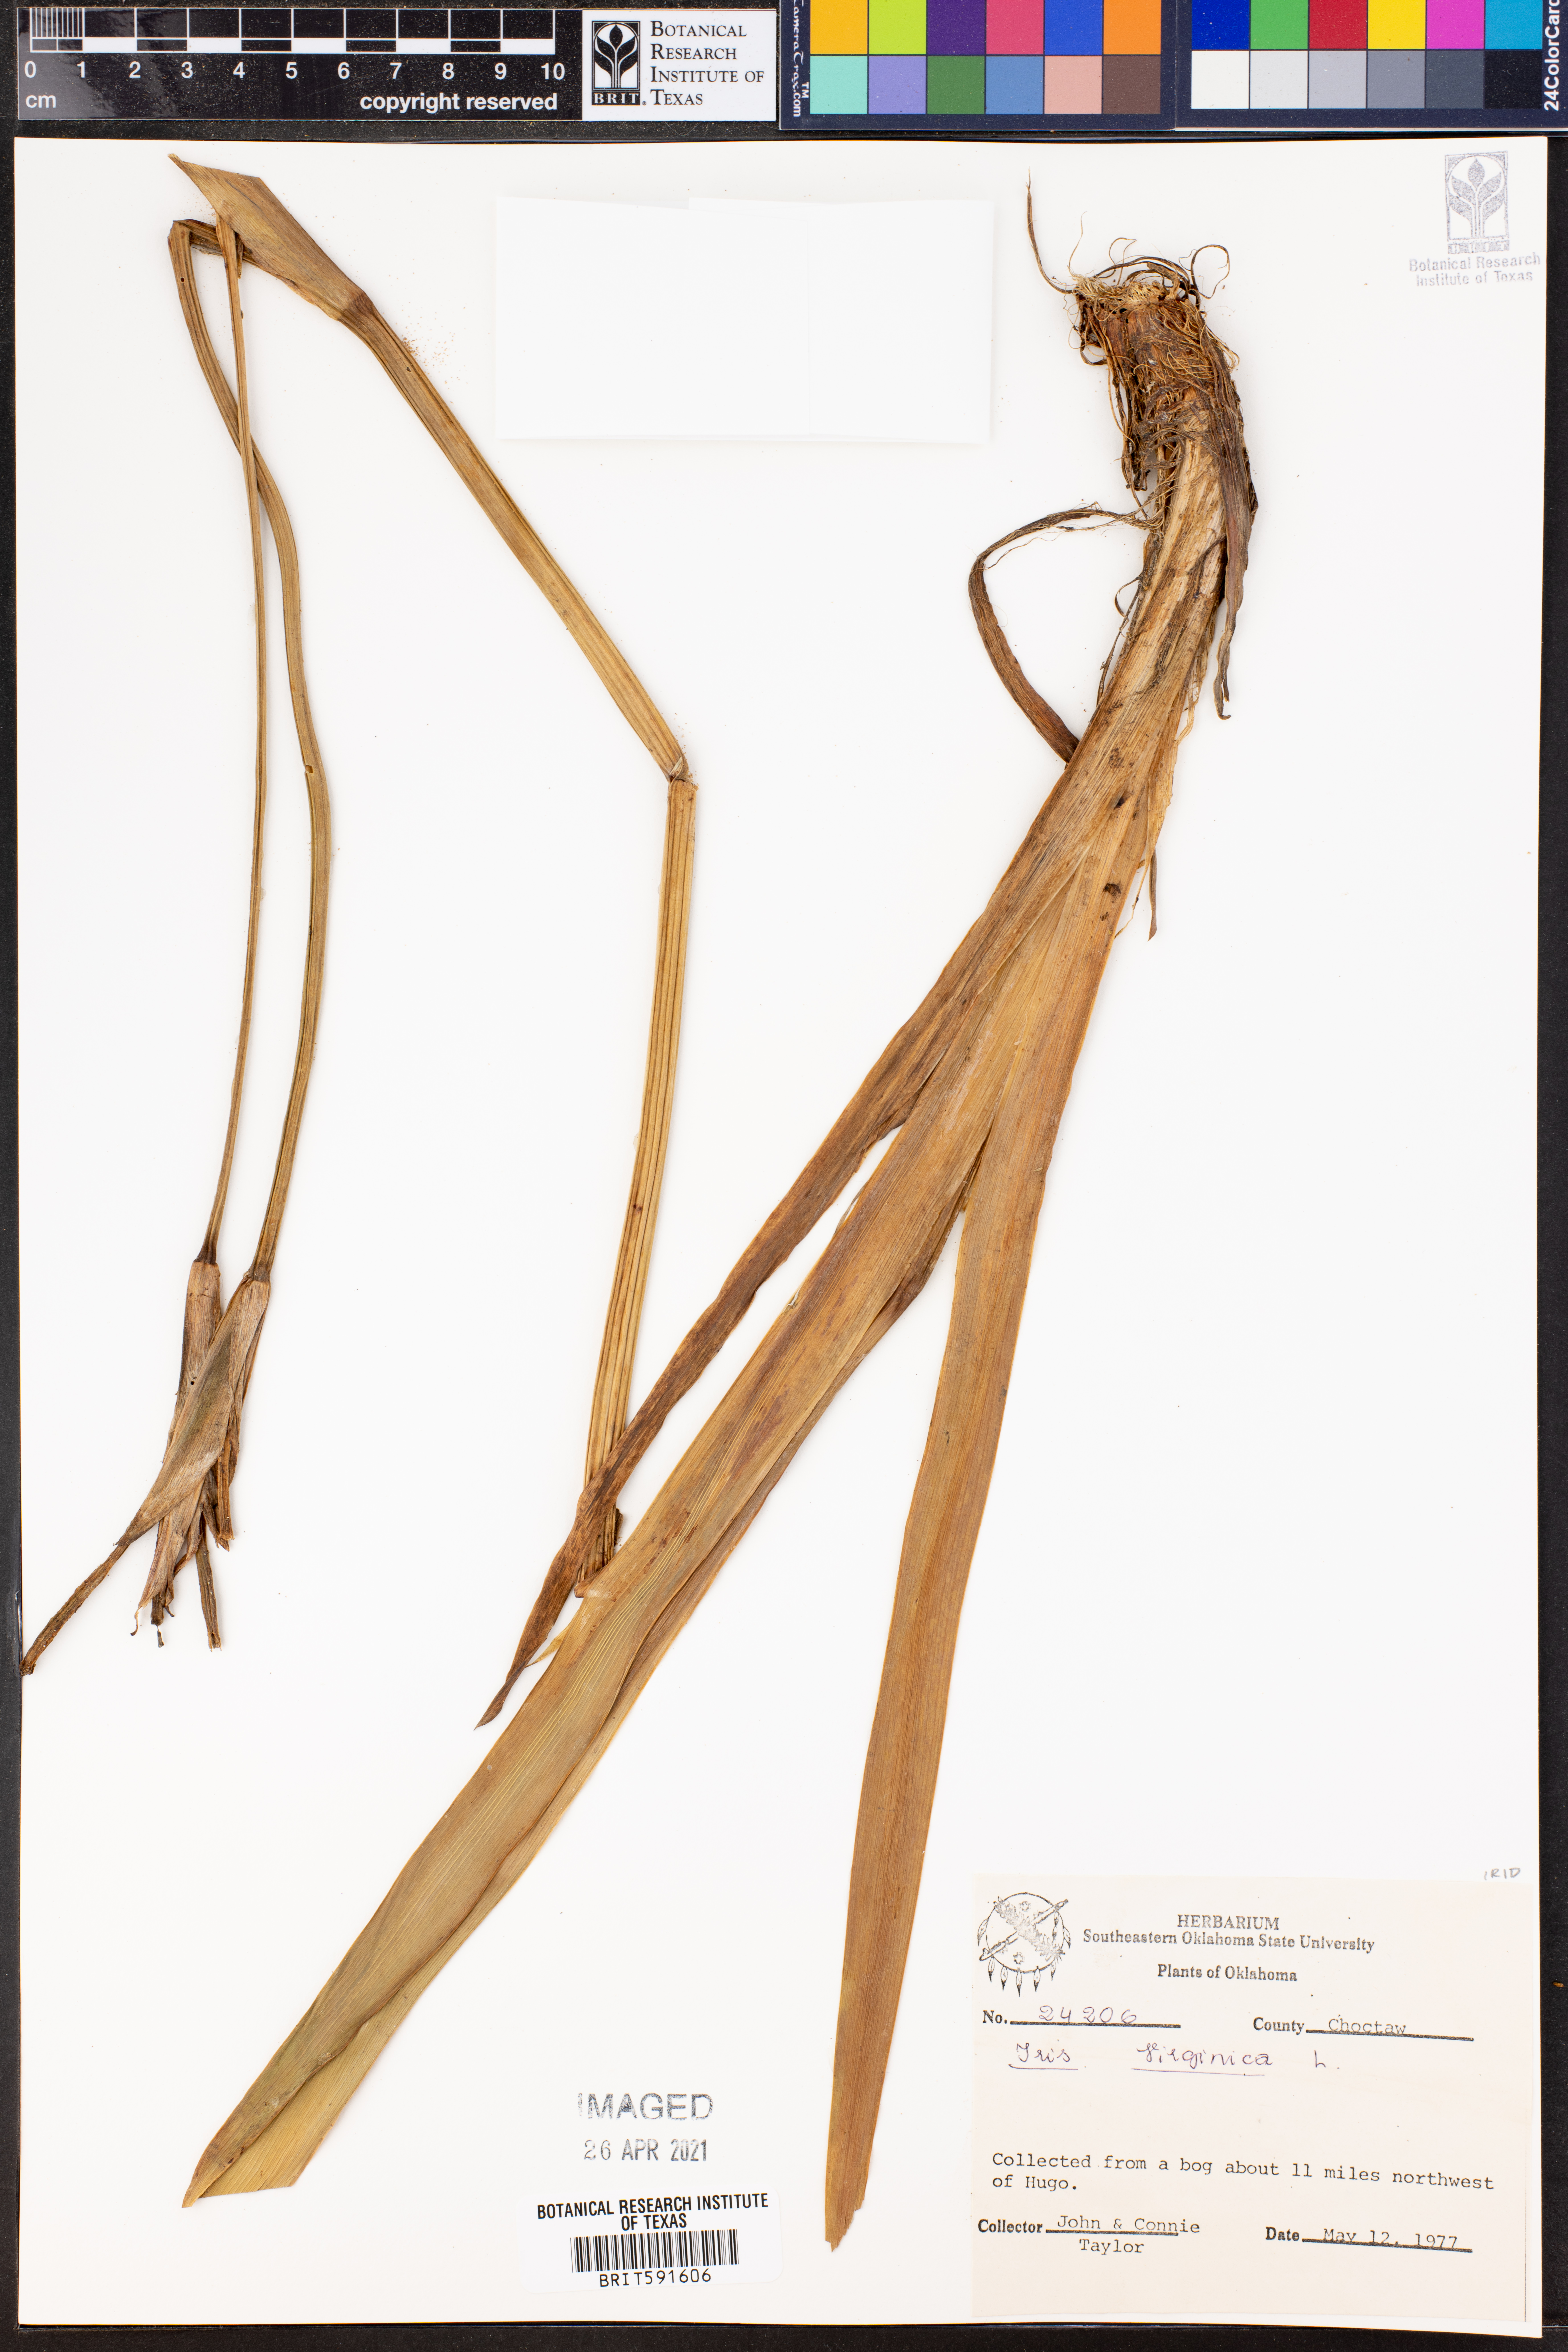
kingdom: Plantae
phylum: Tracheophyta
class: Liliopsida
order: Asparagales
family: Iridaceae
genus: Iris
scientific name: Iris virginica
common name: Southern blue flag
